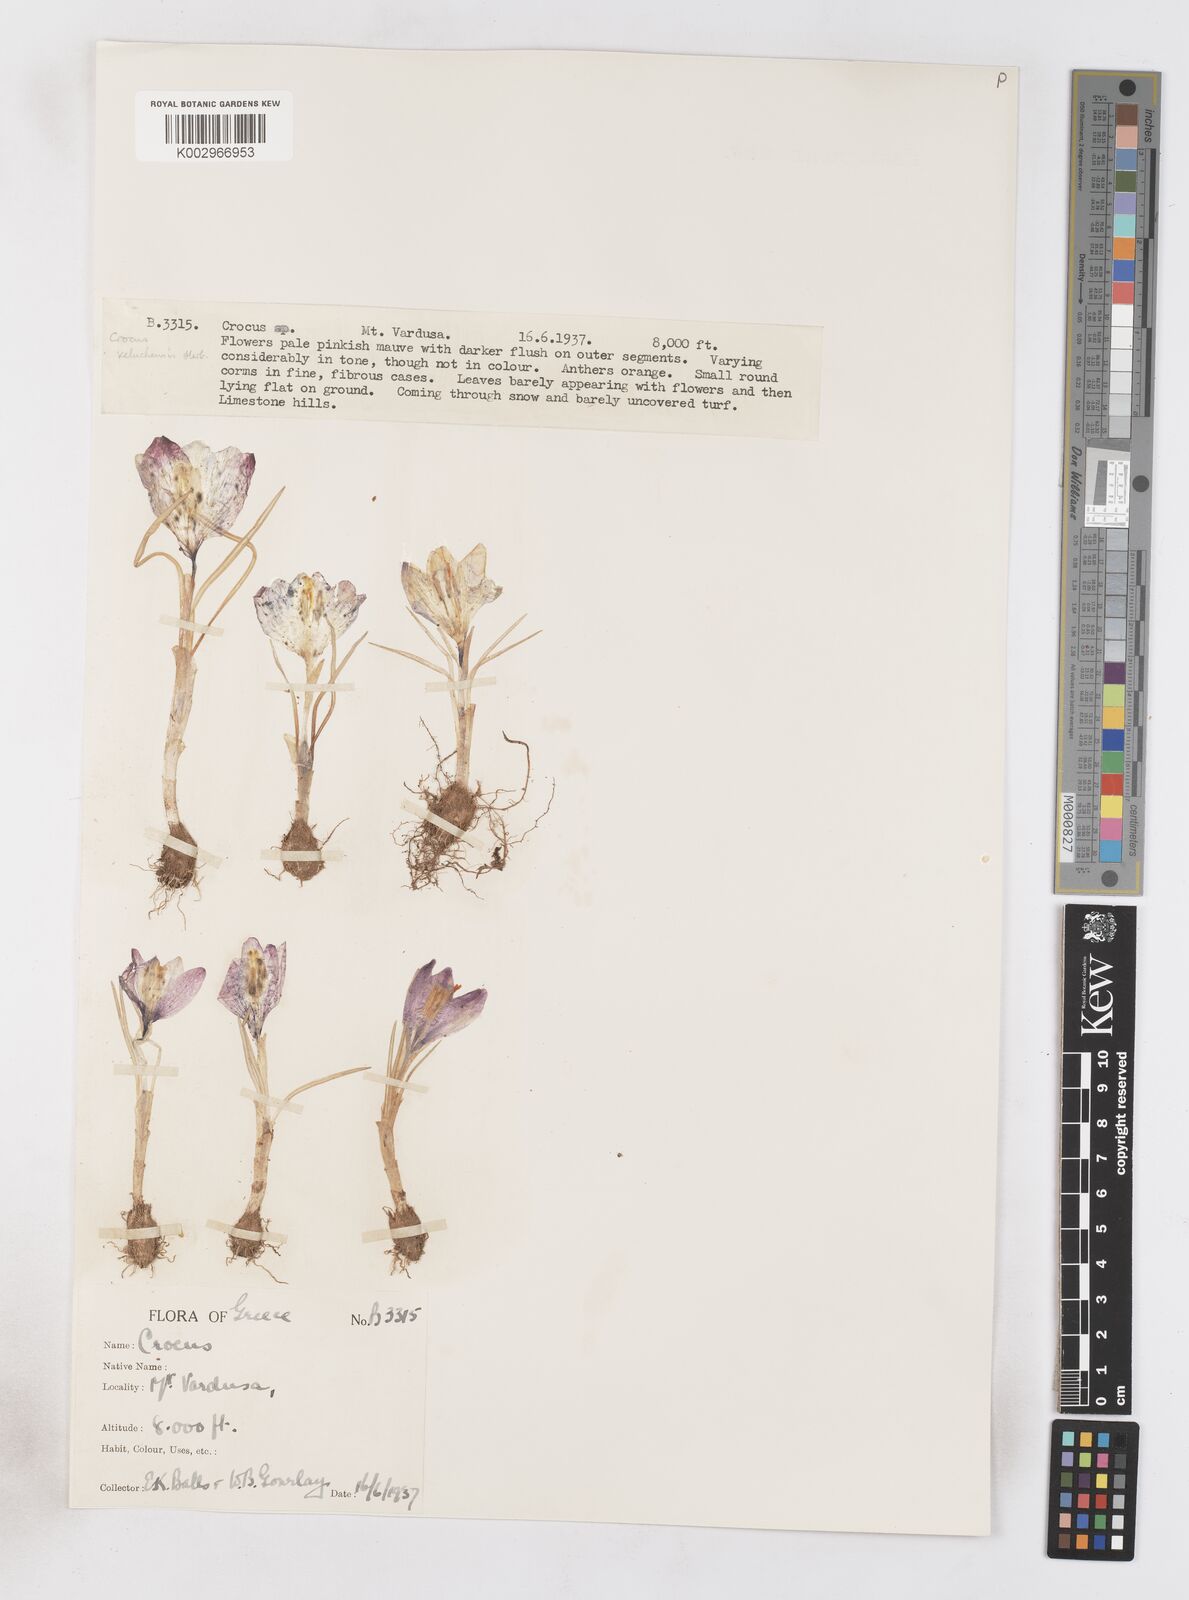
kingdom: Plantae
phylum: Tracheophyta
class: Liliopsida
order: Asparagales
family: Iridaceae
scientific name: Iridaceae
